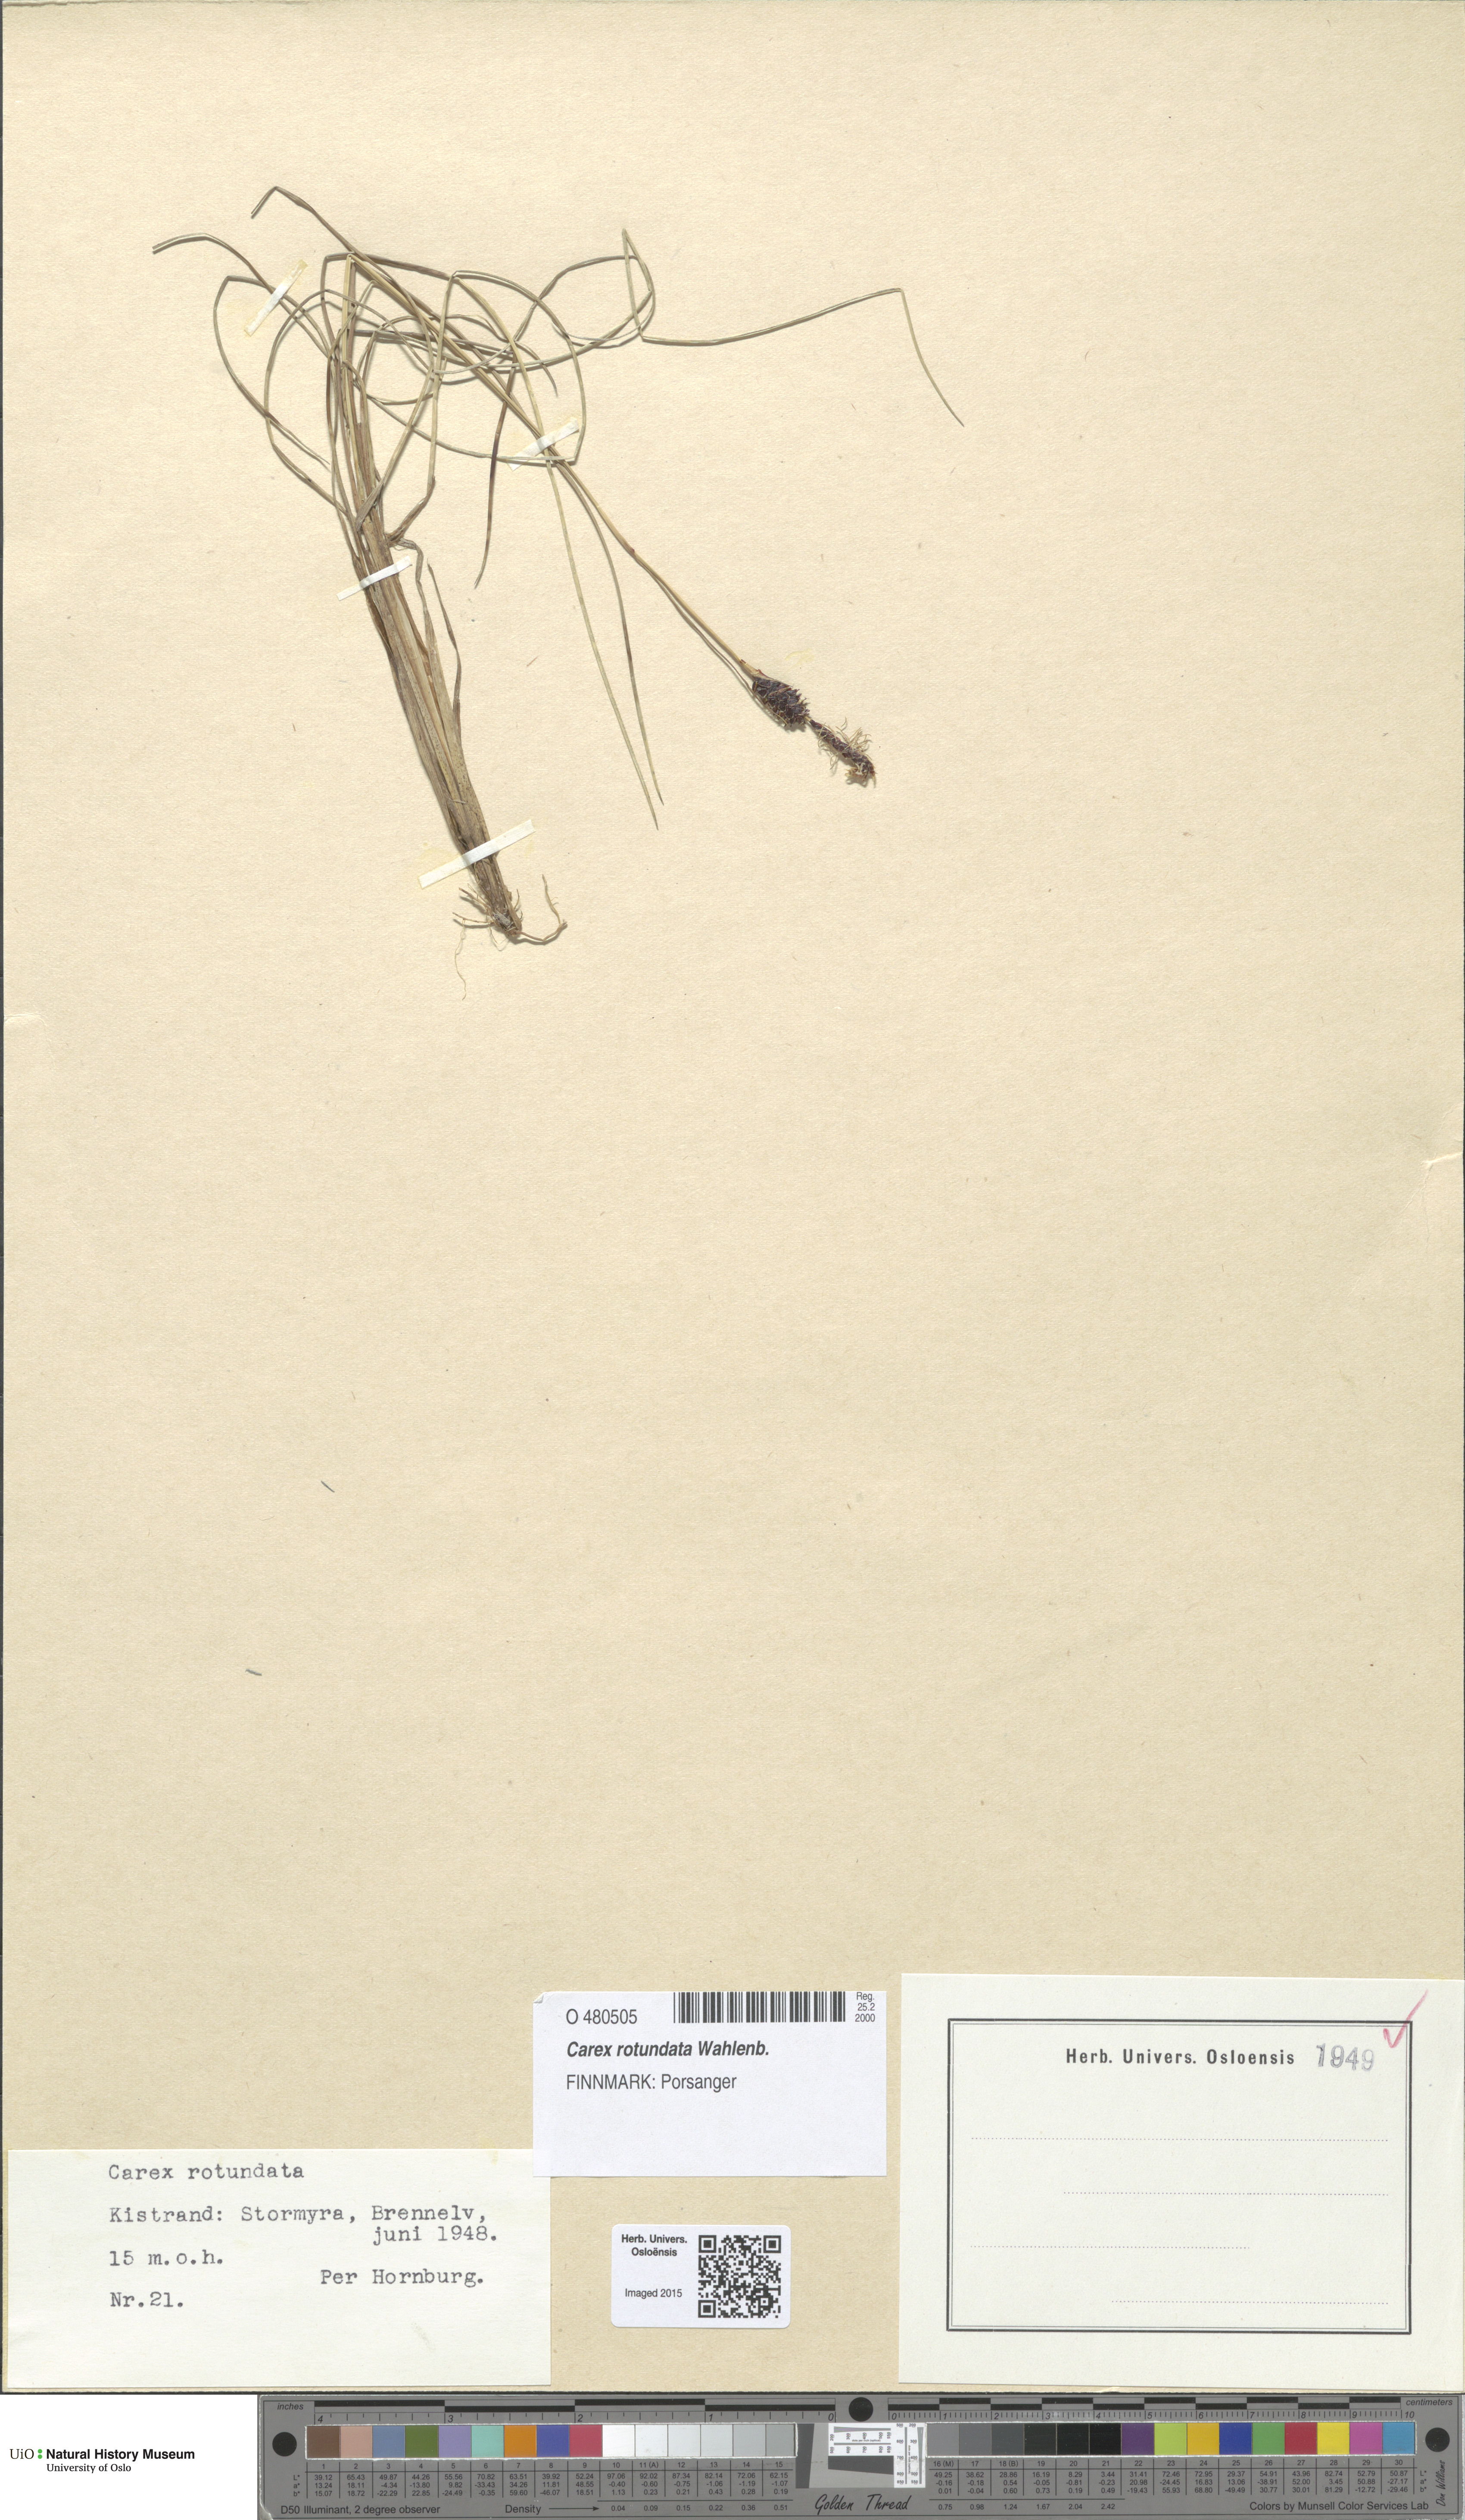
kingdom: Plantae
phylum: Tracheophyta
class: Liliopsida
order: Poales
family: Cyperaceae
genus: Carex
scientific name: Carex rotundata
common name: Round-fruited sedge
